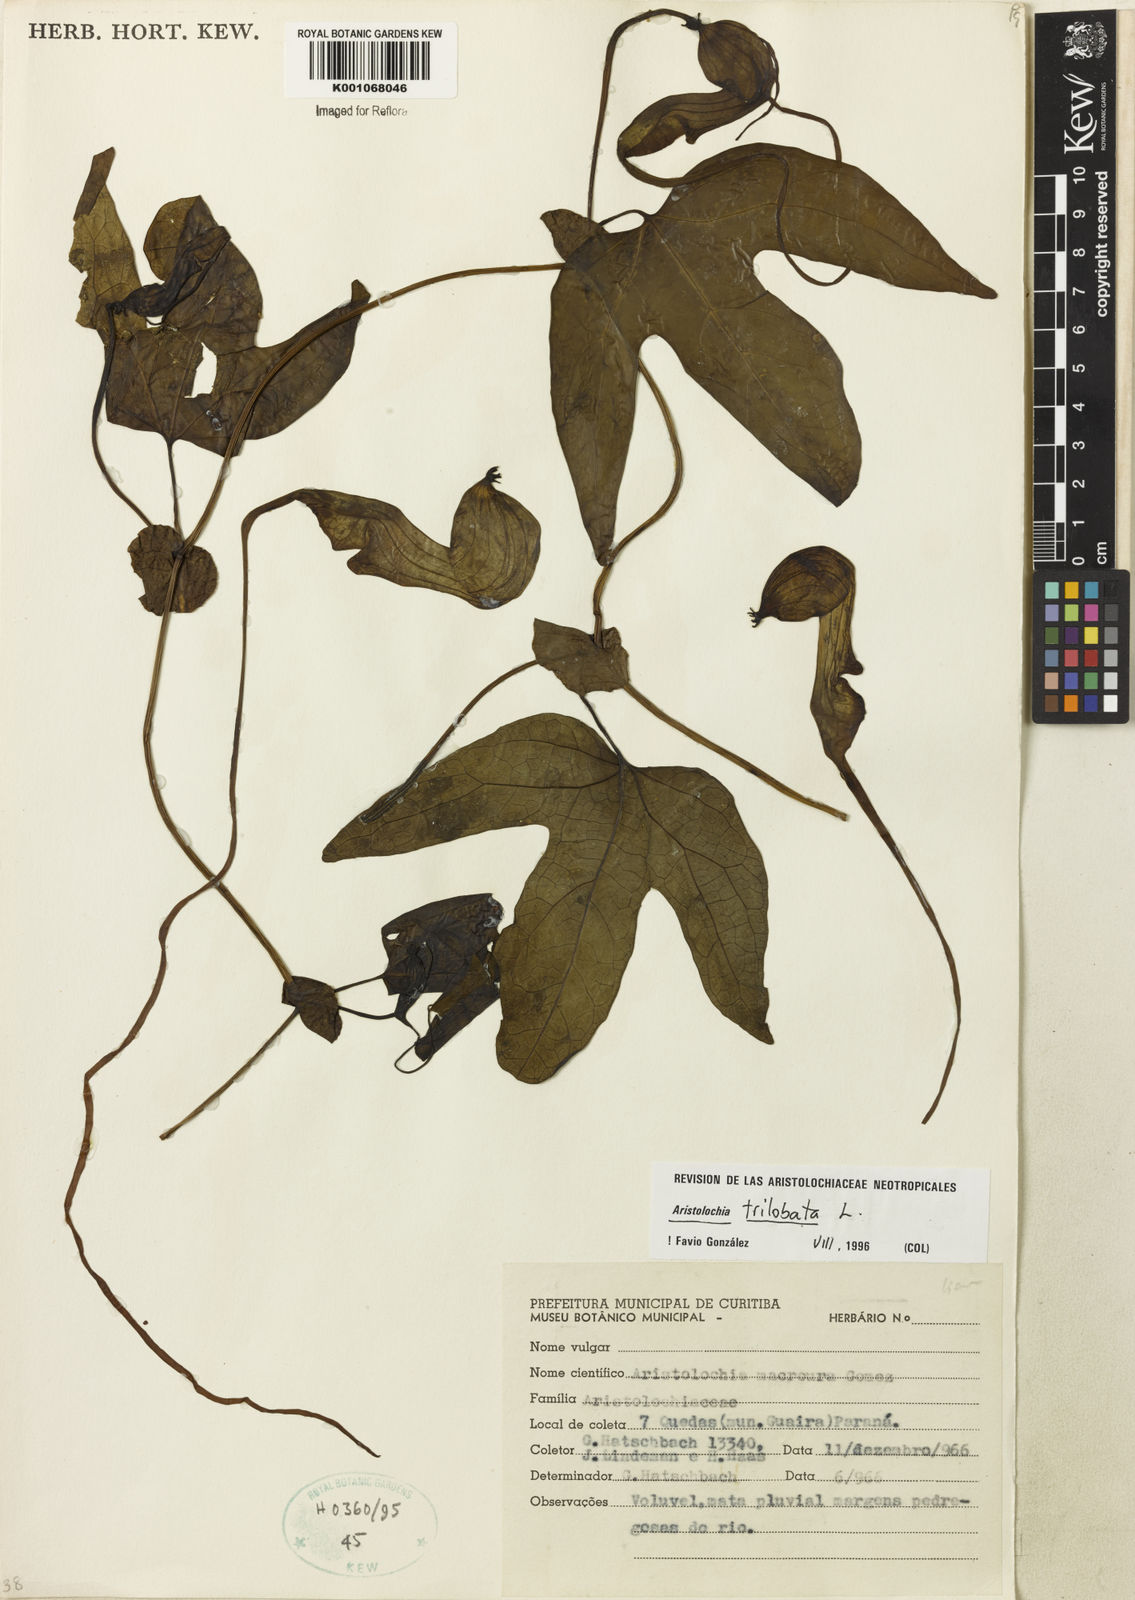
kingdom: Plantae
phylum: Tracheophyta
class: Magnoliopsida
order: Piperales
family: Aristolochiaceae
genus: Aristolochia
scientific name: Aristolochia trilobata
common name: Dutchman's pipe
